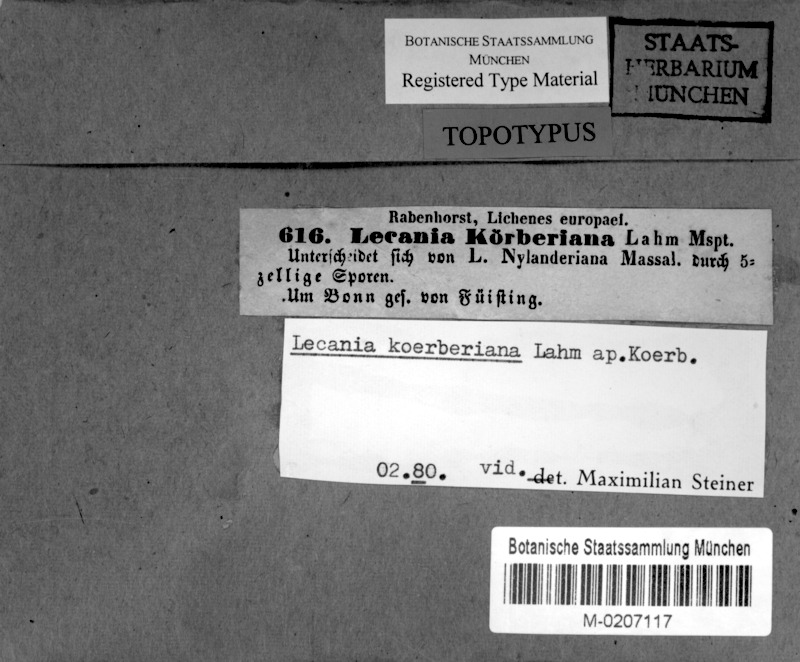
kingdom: Fungi
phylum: Ascomycota
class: Lecanoromycetes
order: Lecanorales
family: Ramalinaceae
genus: Lecania
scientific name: Lecania koerberiana
